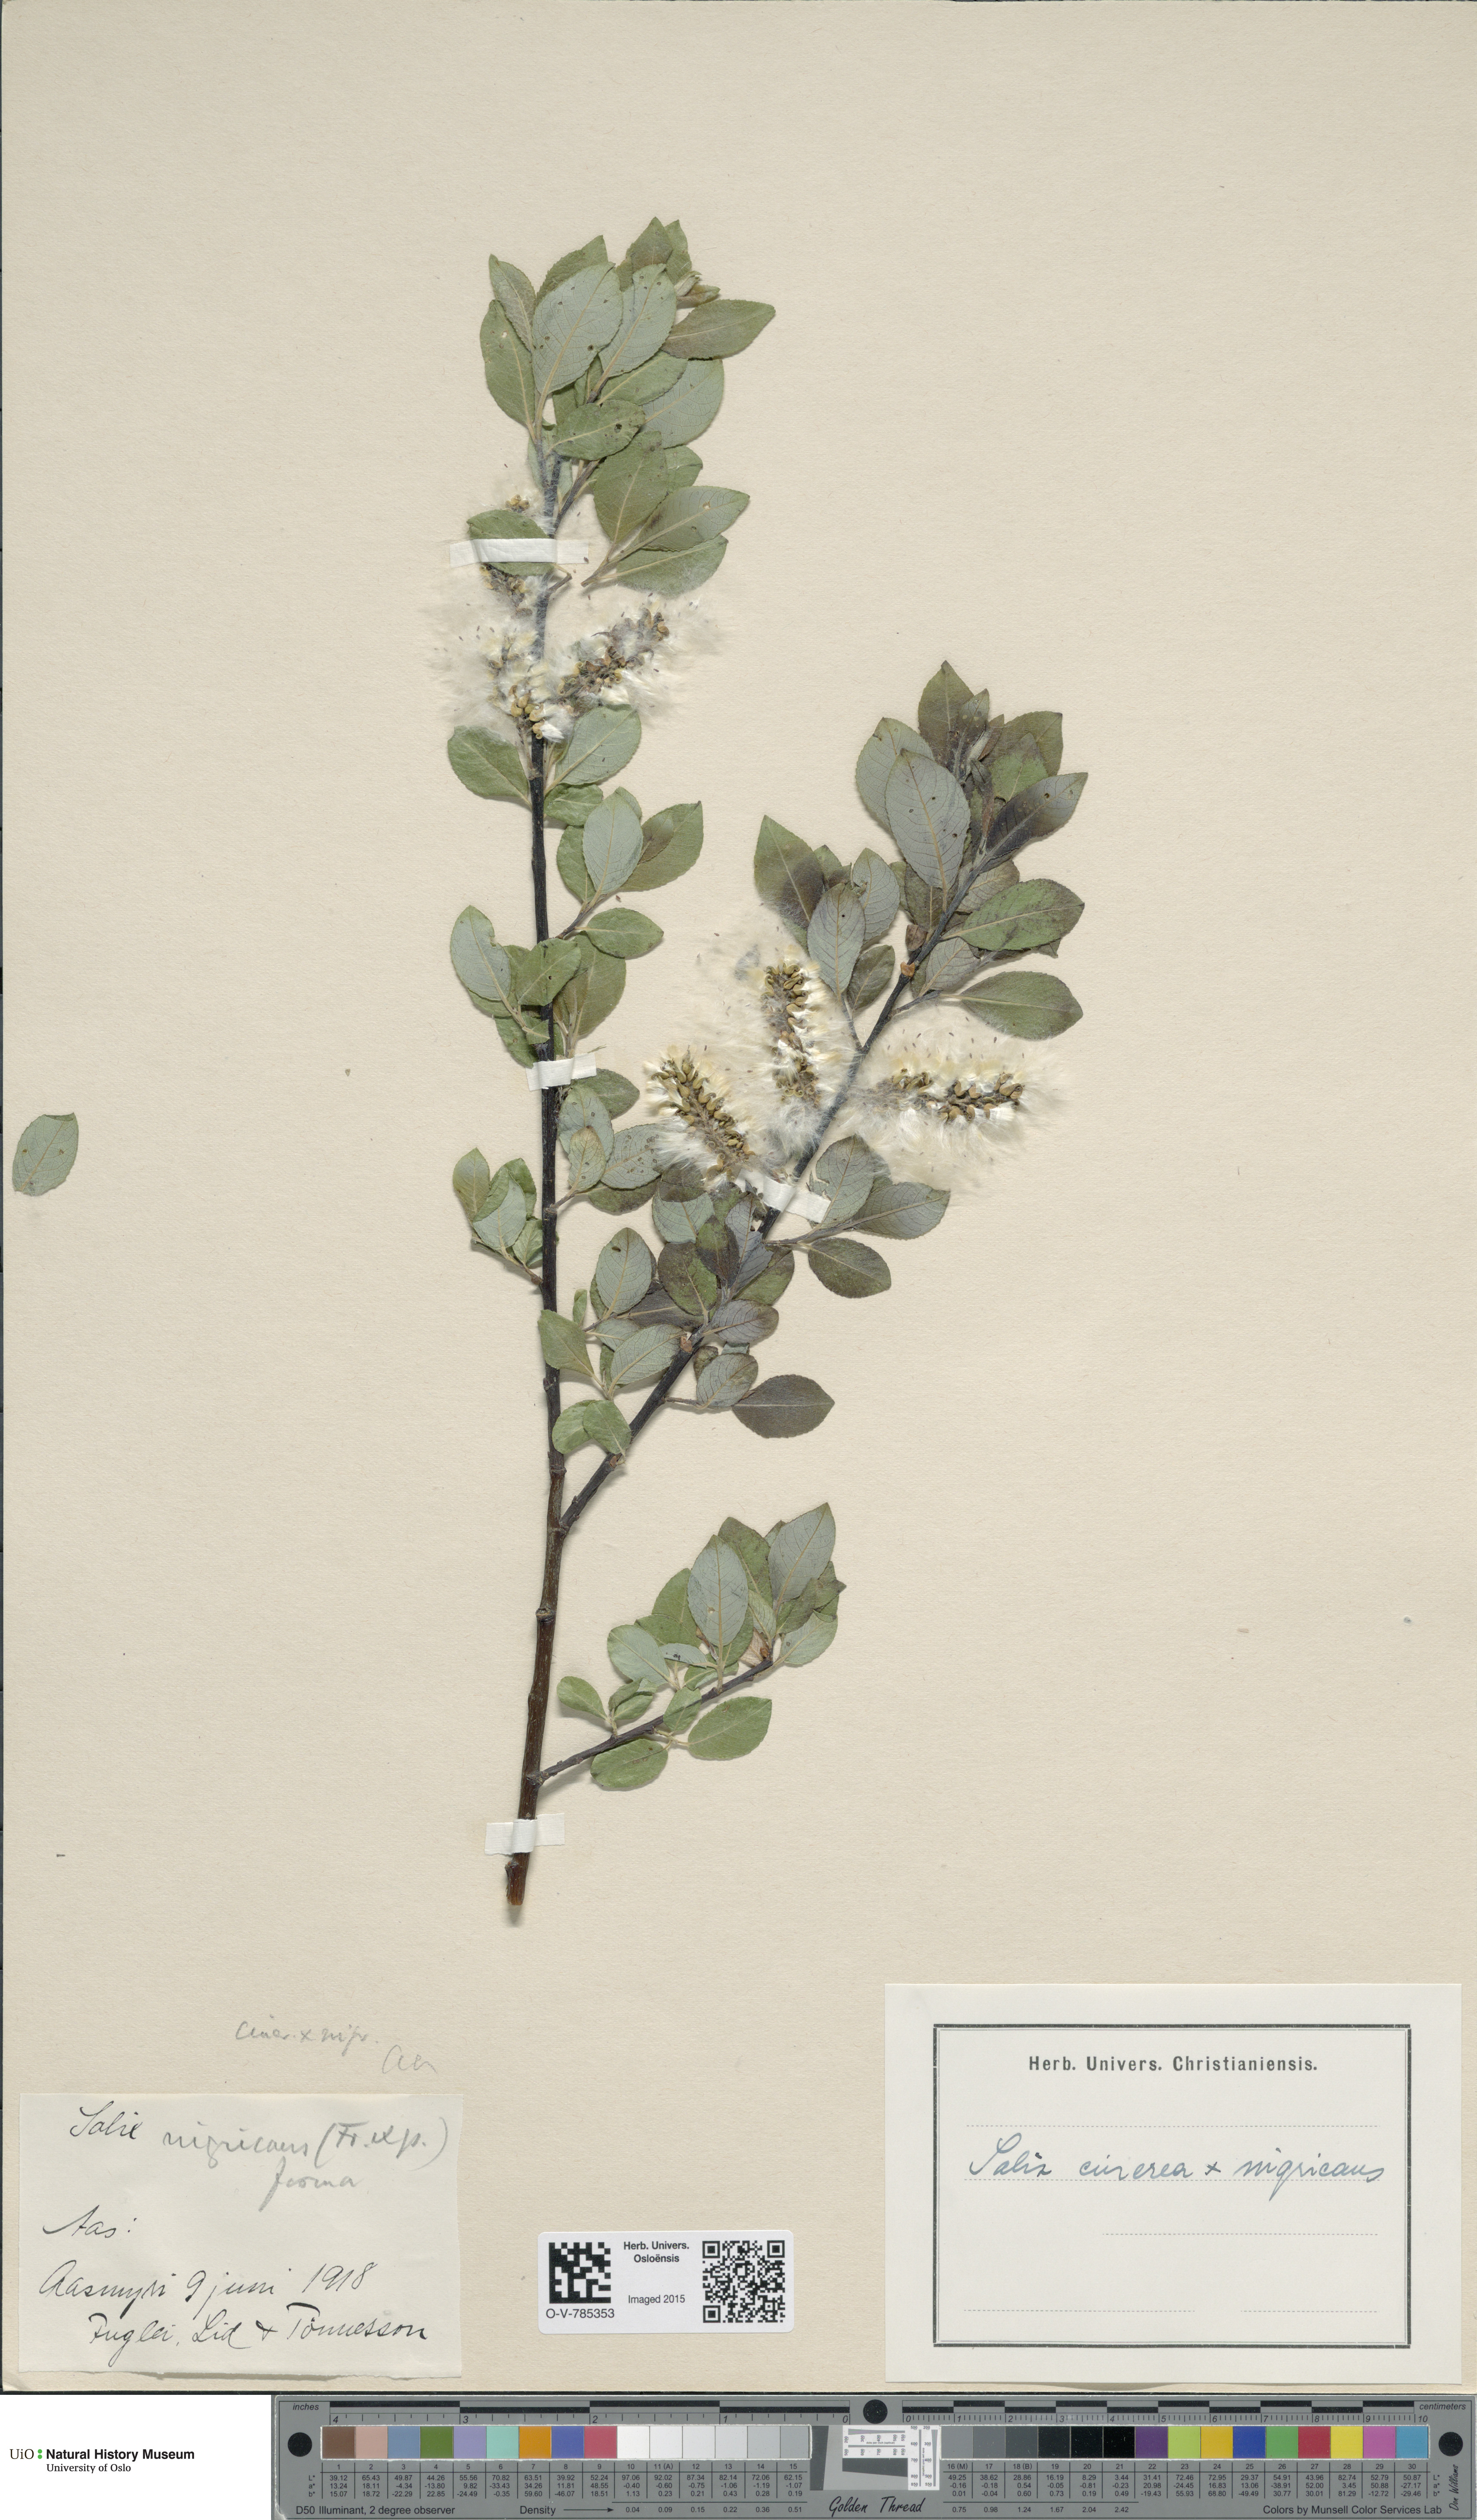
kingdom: Plantae
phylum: Tracheophyta
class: Magnoliopsida
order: Malpighiales
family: Salicaceae
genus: Salix
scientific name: Salix
